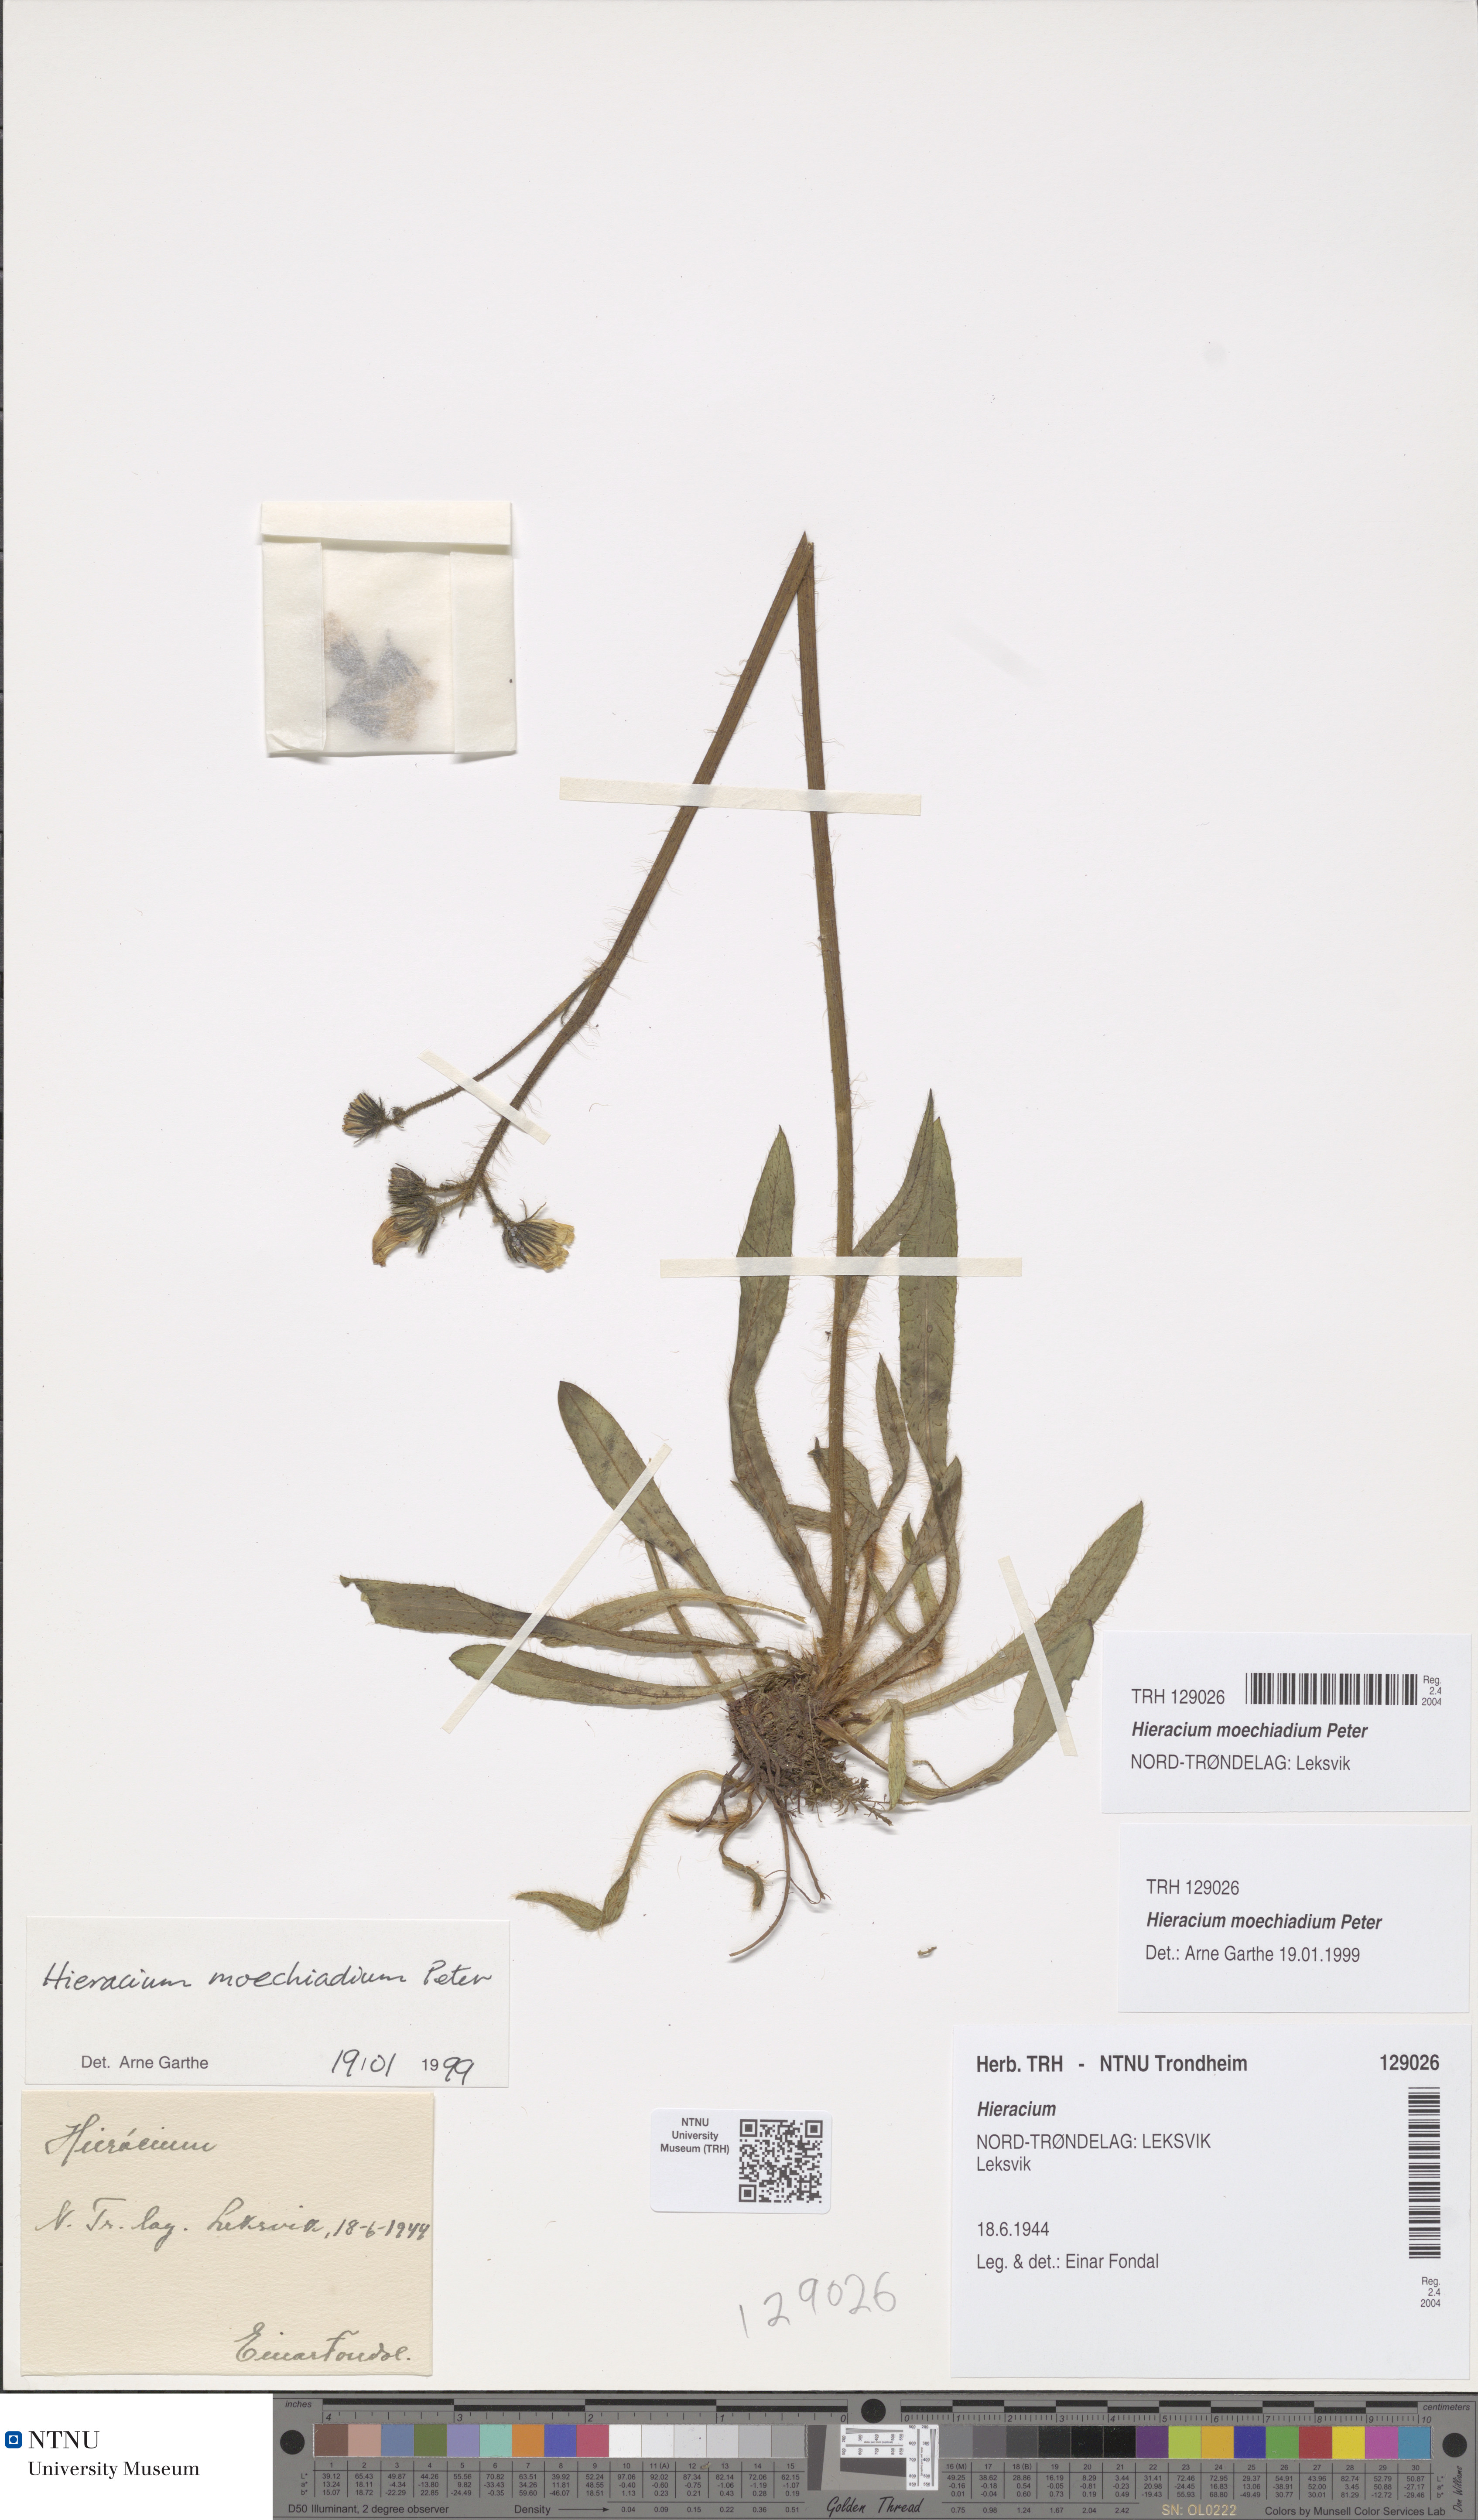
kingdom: Plantae
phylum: Tracheophyta
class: Magnoliopsida
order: Asterales
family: Asteraceae
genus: Pilosella
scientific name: Pilosella moechiadia
